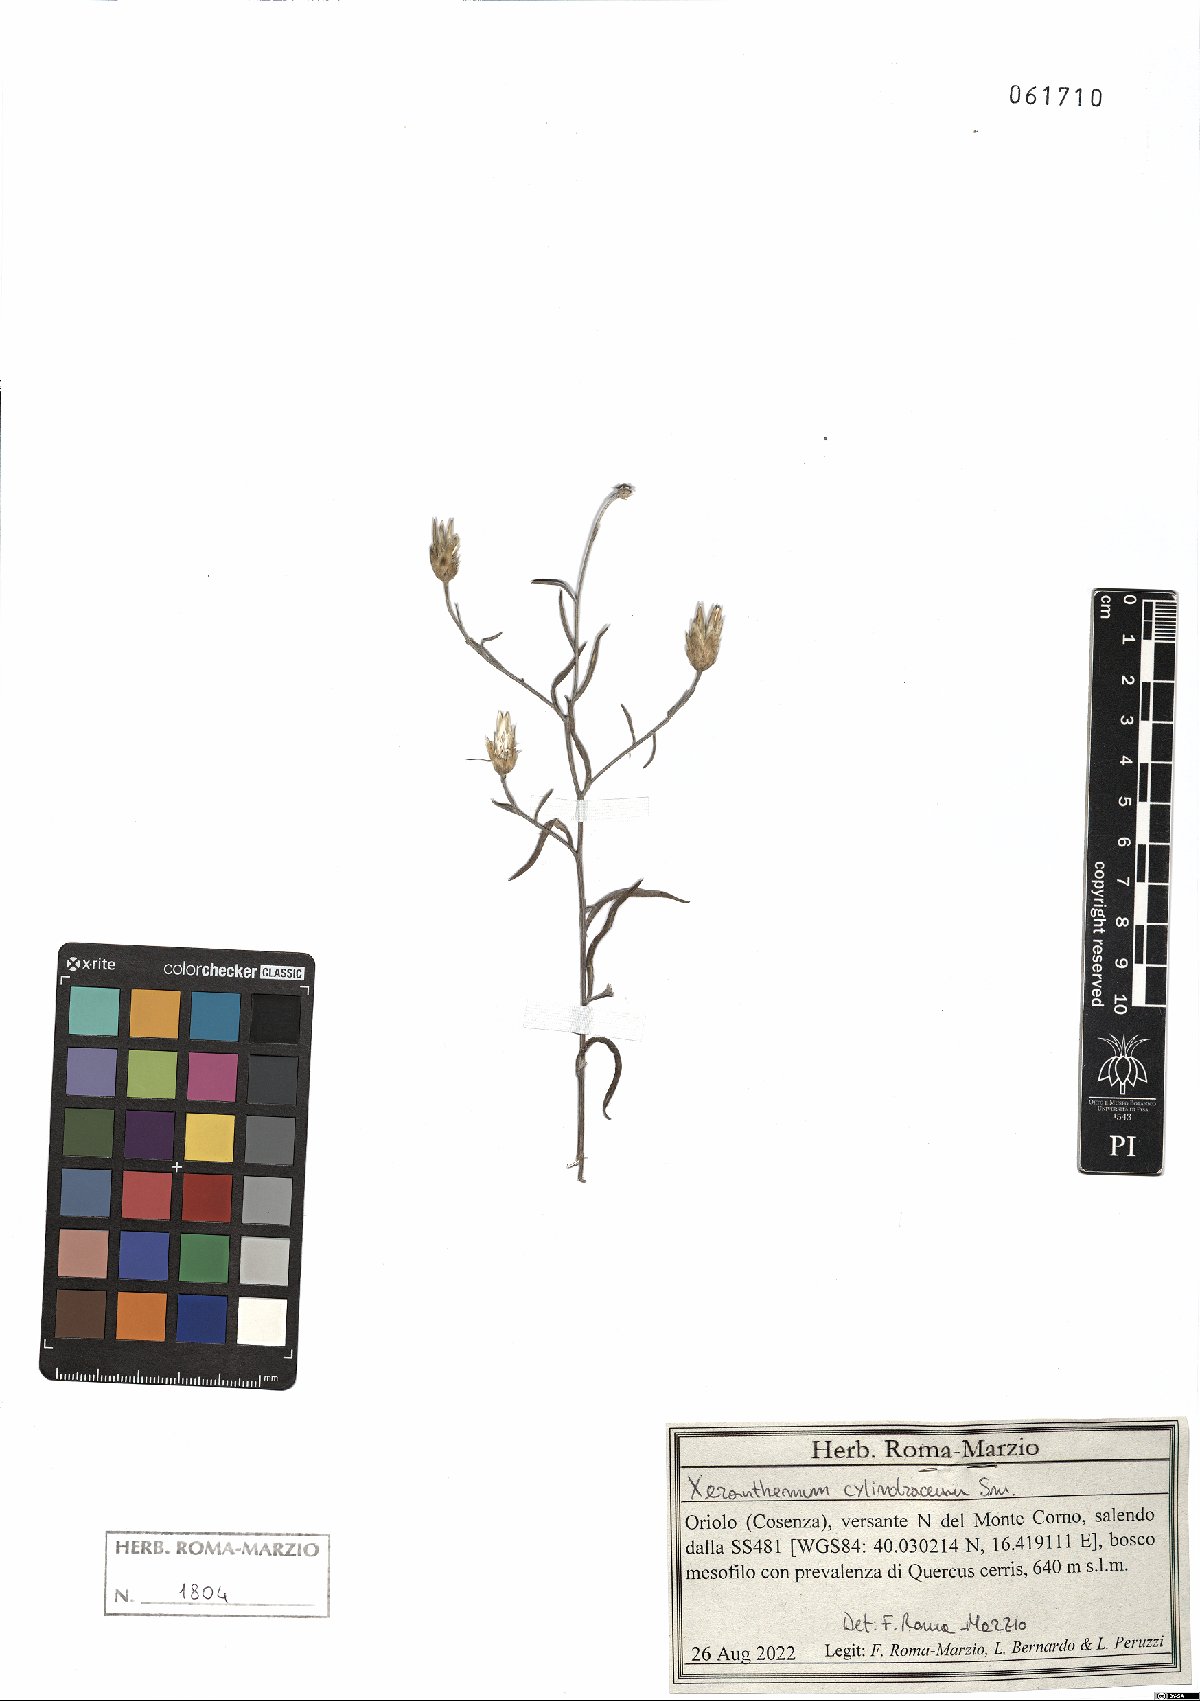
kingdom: Plantae
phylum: Tracheophyta
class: Magnoliopsida
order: Asterales
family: Asteraceae
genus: Xeranthemum
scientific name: Xeranthemum cylindraceum
